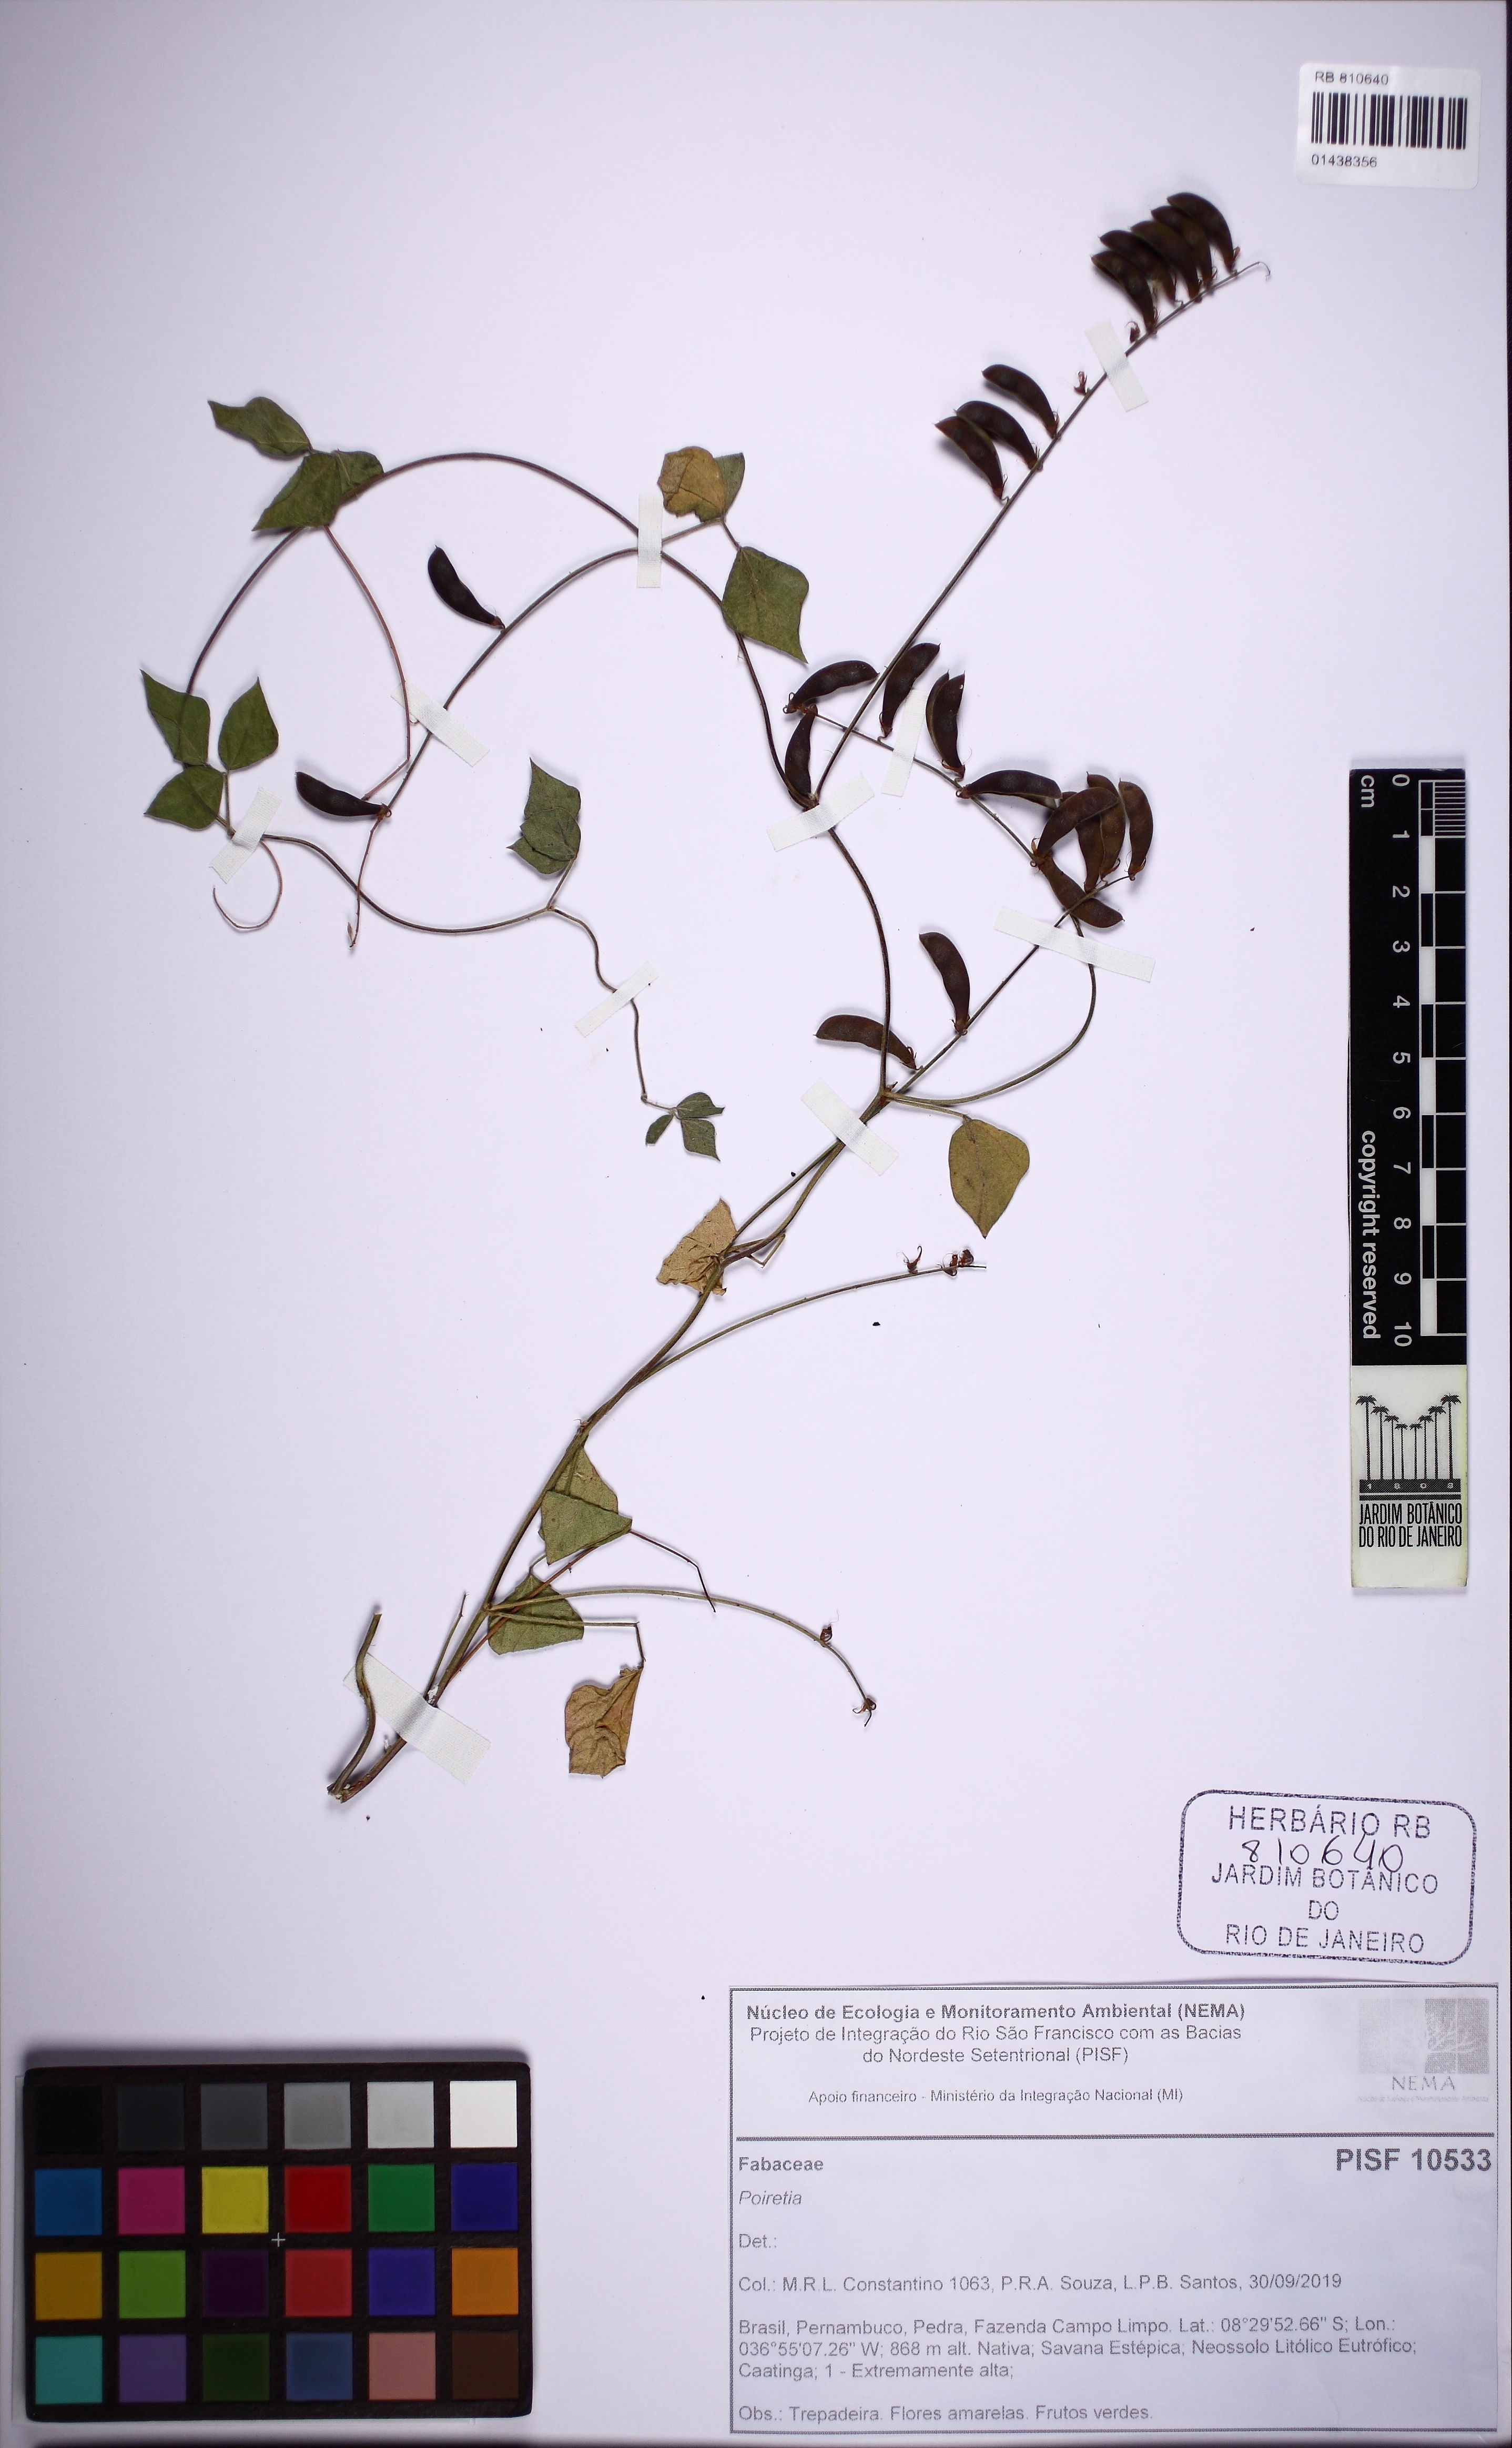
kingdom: Plantae
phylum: Tracheophyta
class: Magnoliopsida
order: Fabales
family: Fabaceae
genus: Rhynchosia
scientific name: Rhynchosia minima
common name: Least snoutbean
